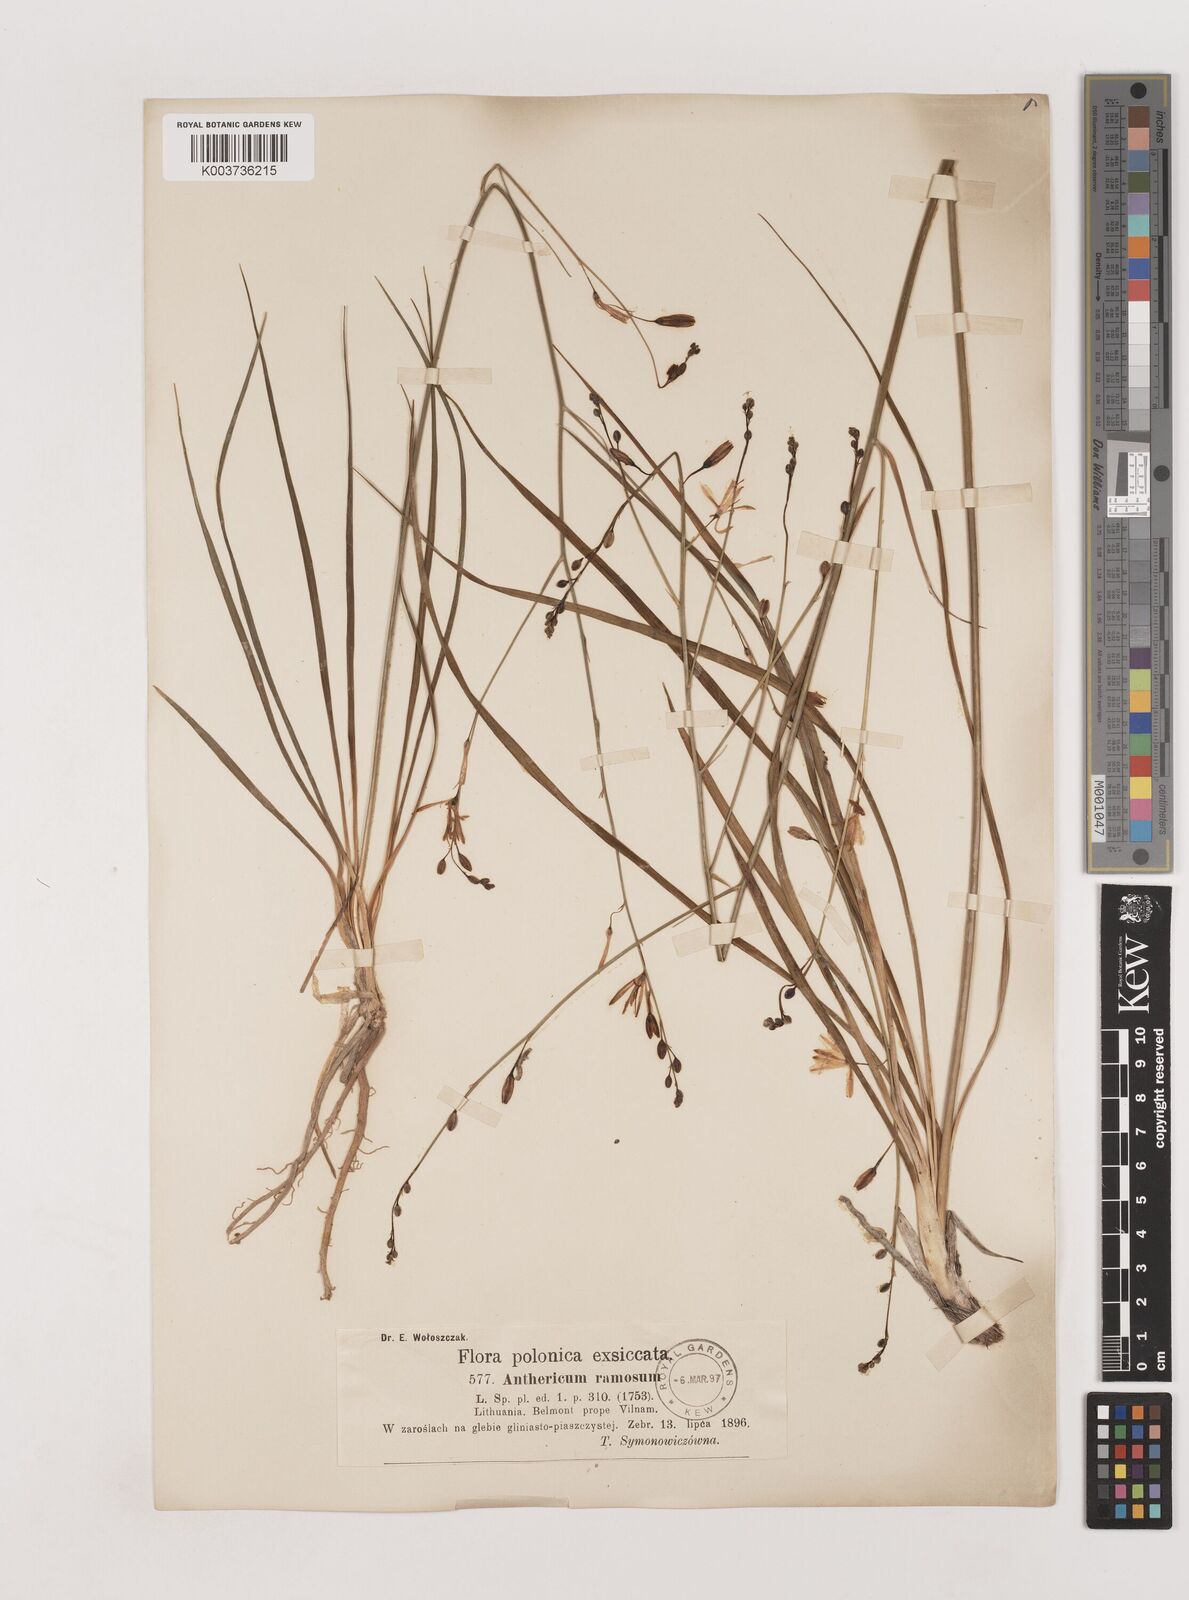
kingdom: Plantae
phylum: Tracheophyta
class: Liliopsida
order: Asparagales
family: Asparagaceae
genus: Anthericum
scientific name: Anthericum
